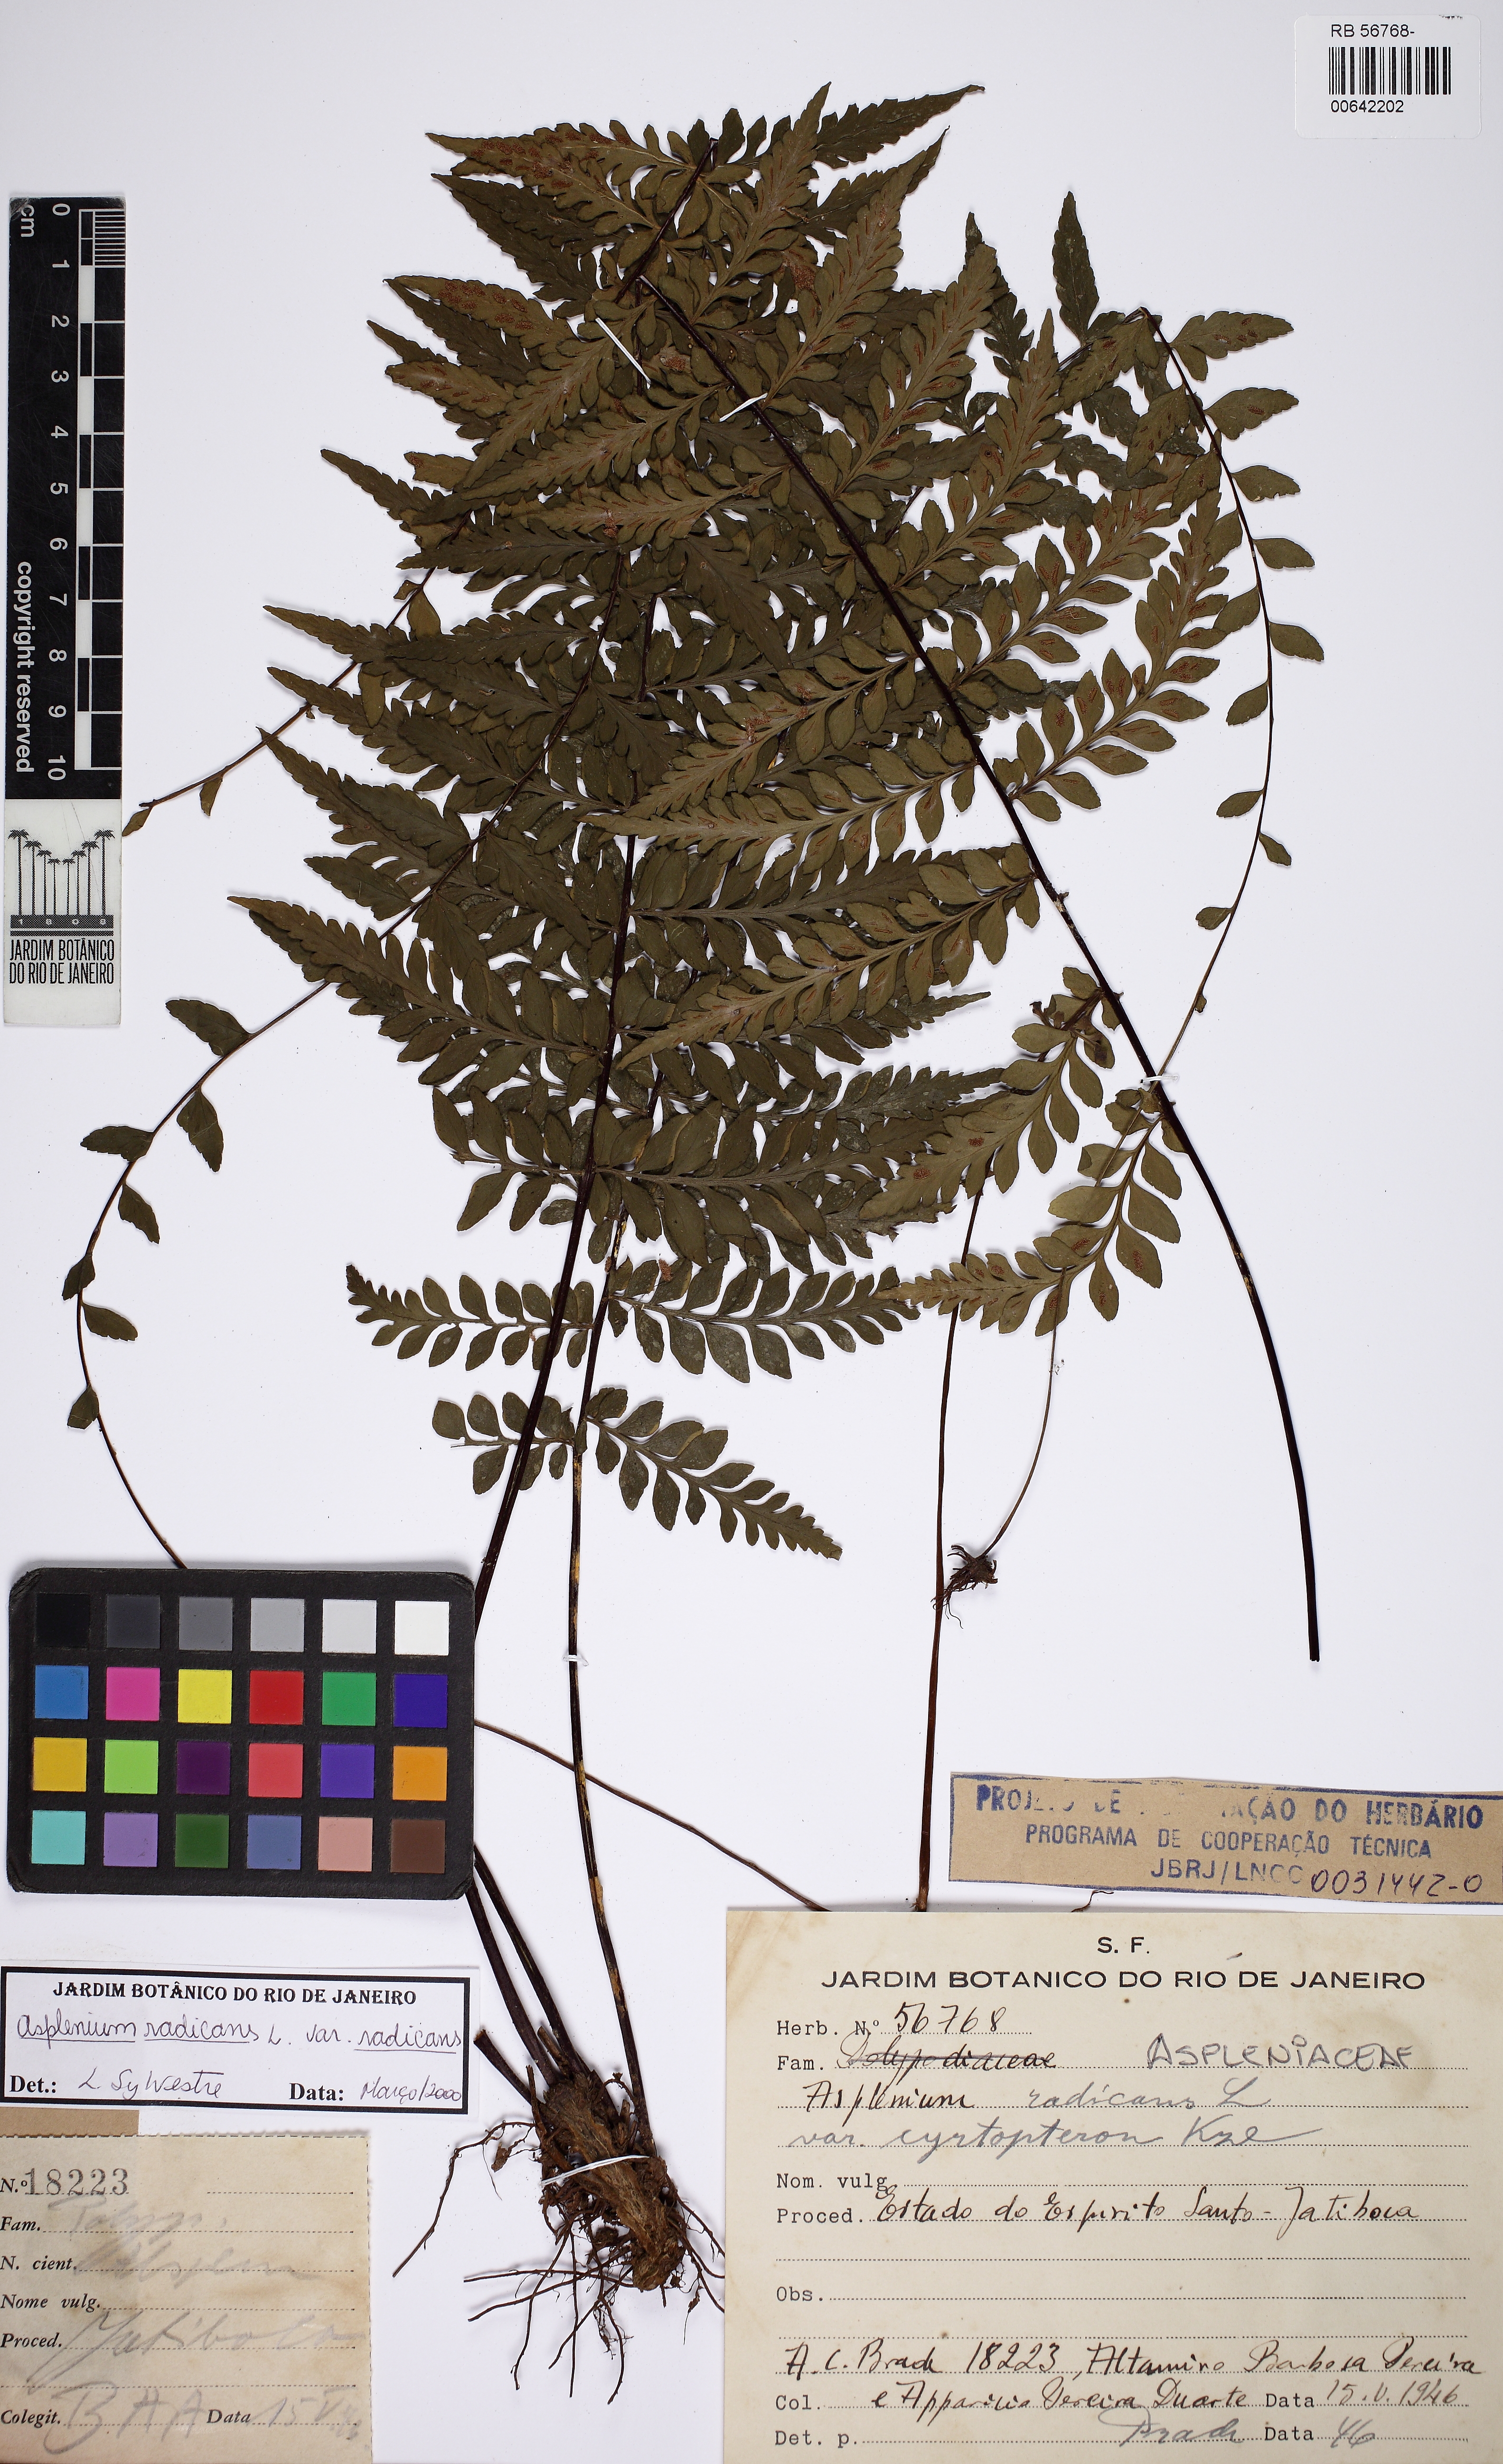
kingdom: Plantae
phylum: Tracheophyta
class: Polypodiopsida
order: Polypodiales
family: Aspleniaceae
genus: Asplenium
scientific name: Asplenium radicans
